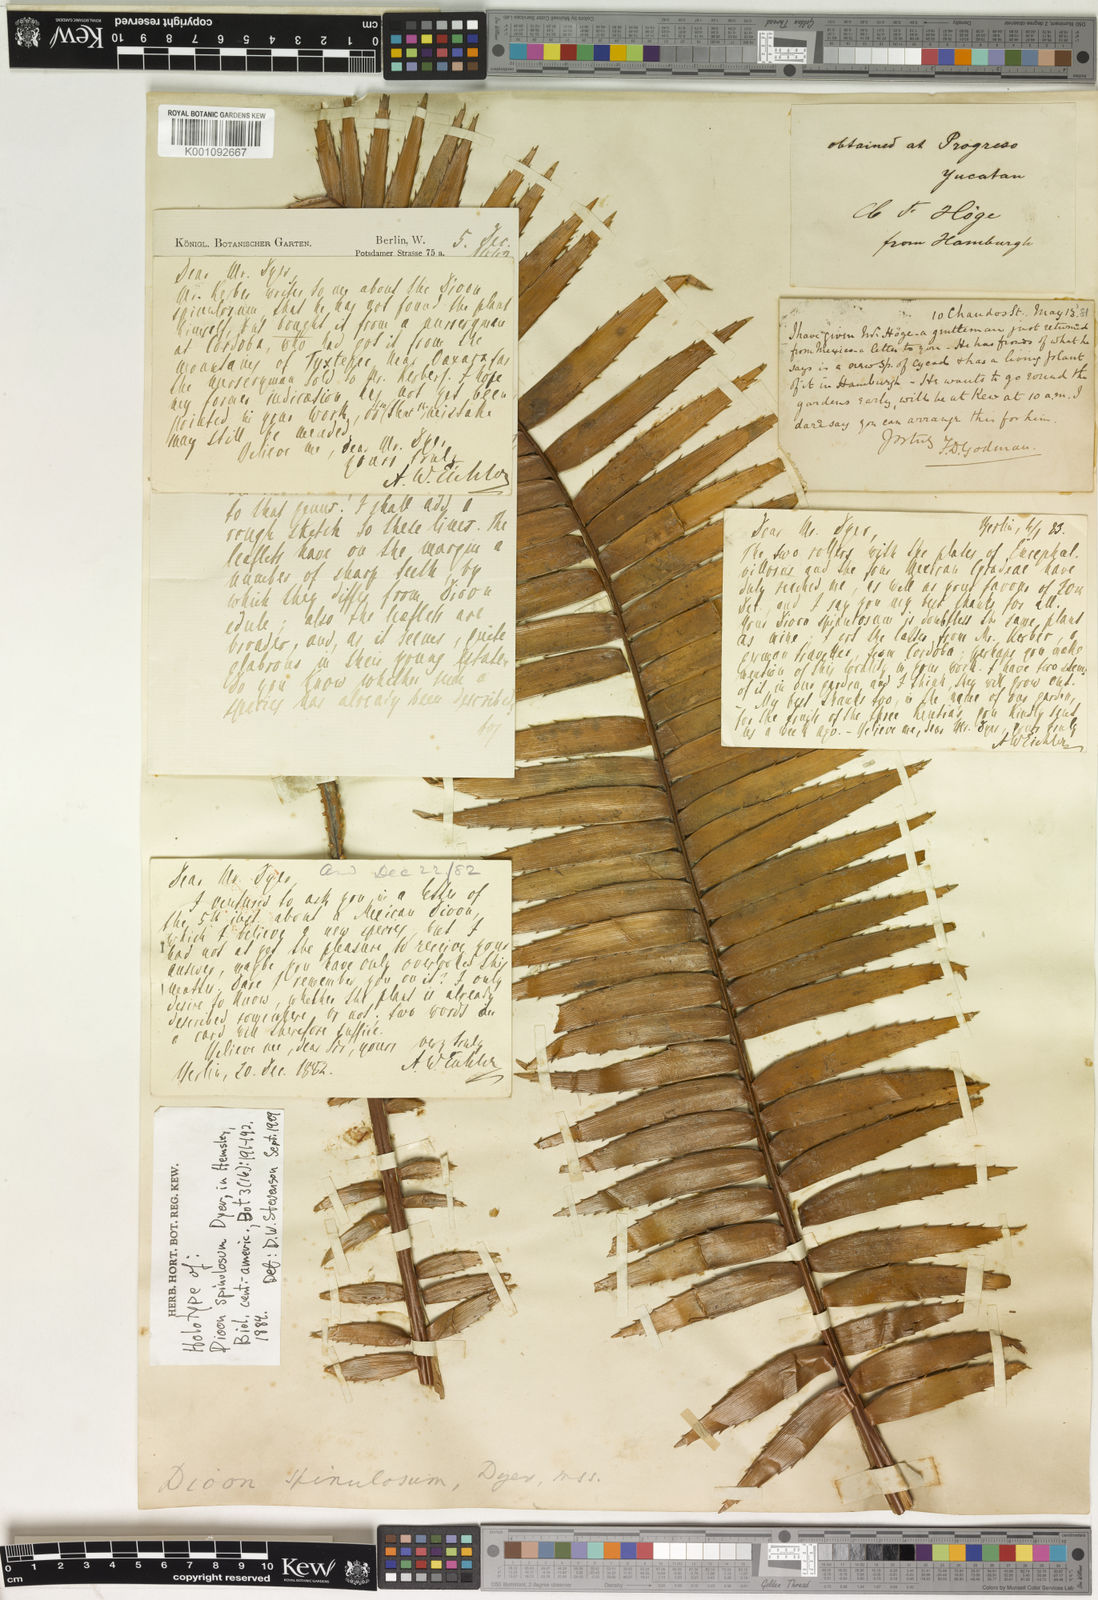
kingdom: Plantae
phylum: Tracheophyta
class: Cycadopsida
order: Cycadales
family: Zamiaceae
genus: Dioon
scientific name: Dioon
